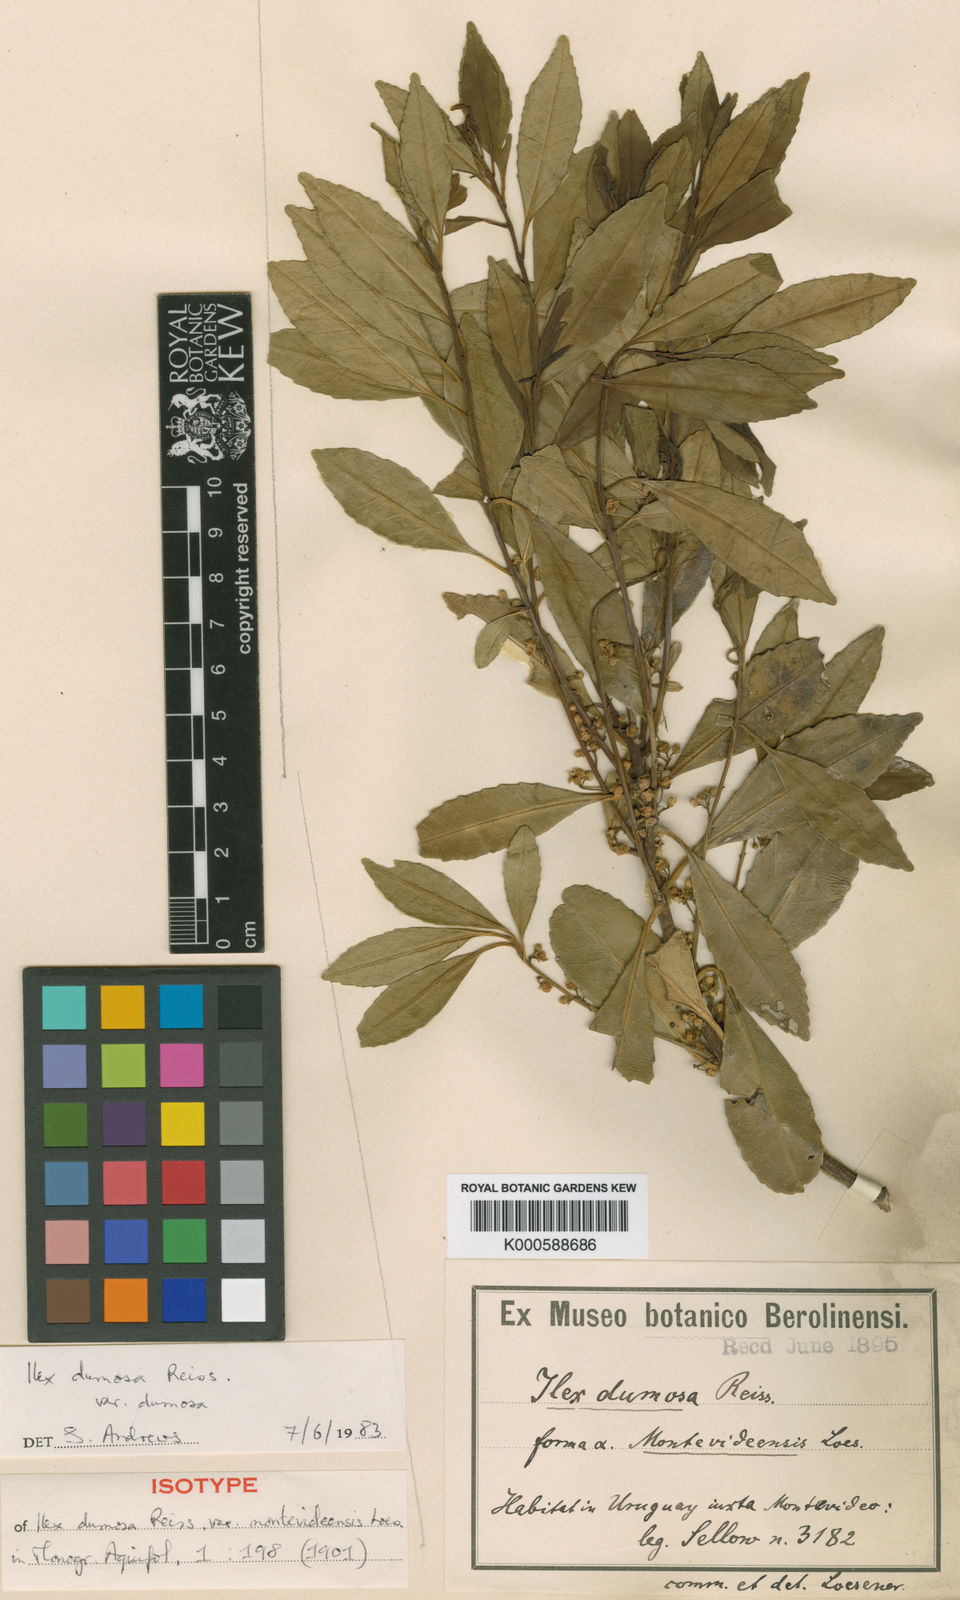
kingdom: Plantae
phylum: Tracheophyta
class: Magnoliopsida
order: Aquifoliales
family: Aquifoliaceae
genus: Ilex
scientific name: Ilex dumosa
